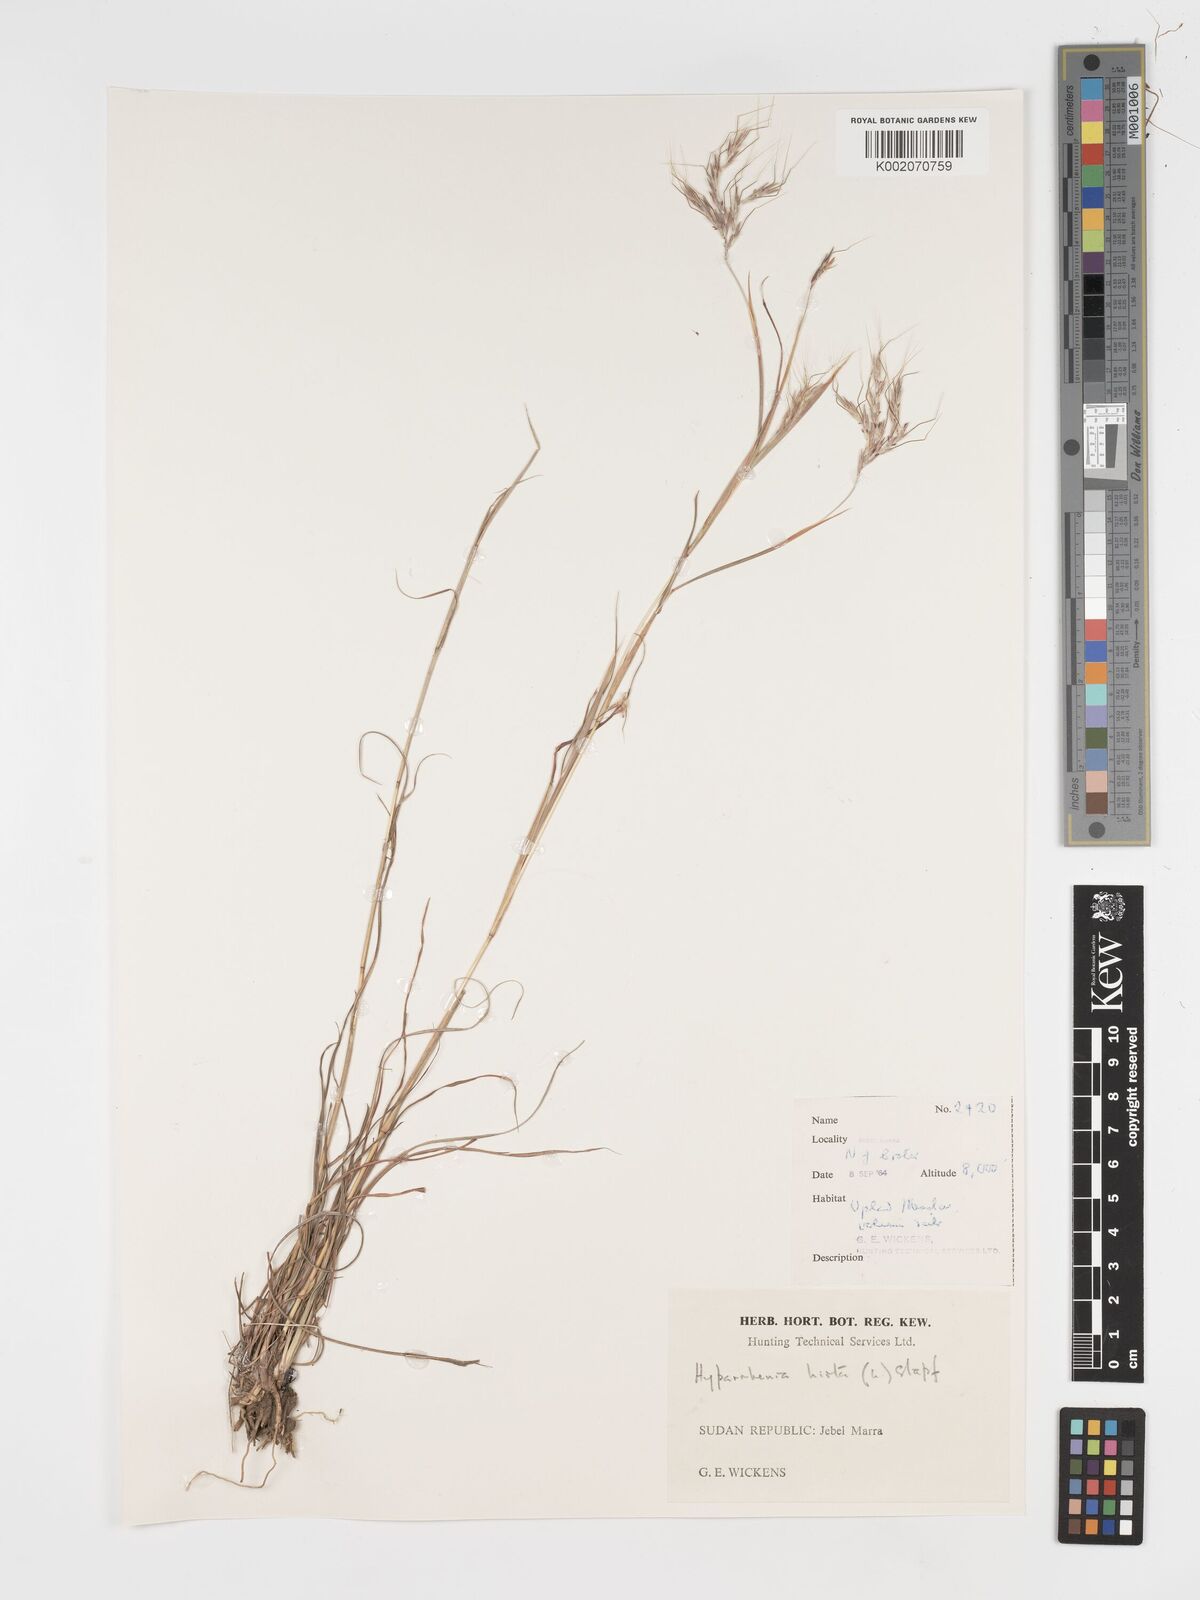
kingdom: Plantae
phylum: Tracheophyta
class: Liliopsida
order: Poales
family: Poaceae
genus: Hyparrhenia
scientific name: Hyparrhenia hirta
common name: Thatching grass
